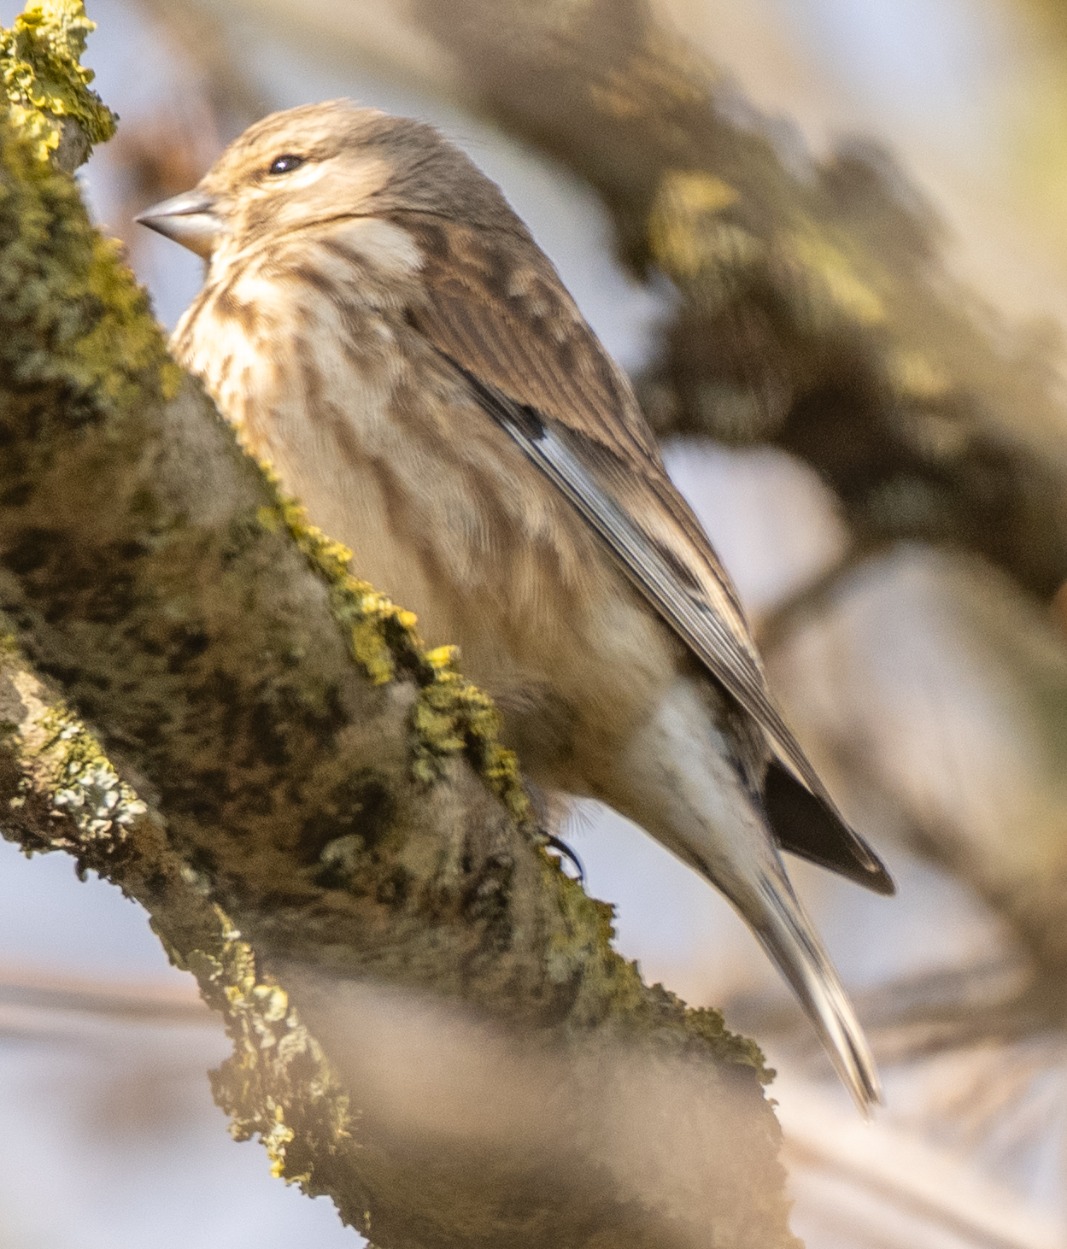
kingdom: Animalia
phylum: Chordata
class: Aves
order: Passeriformes
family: Fringillidae
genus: Linaria
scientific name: Linaria cannabina
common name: Tornirisk
